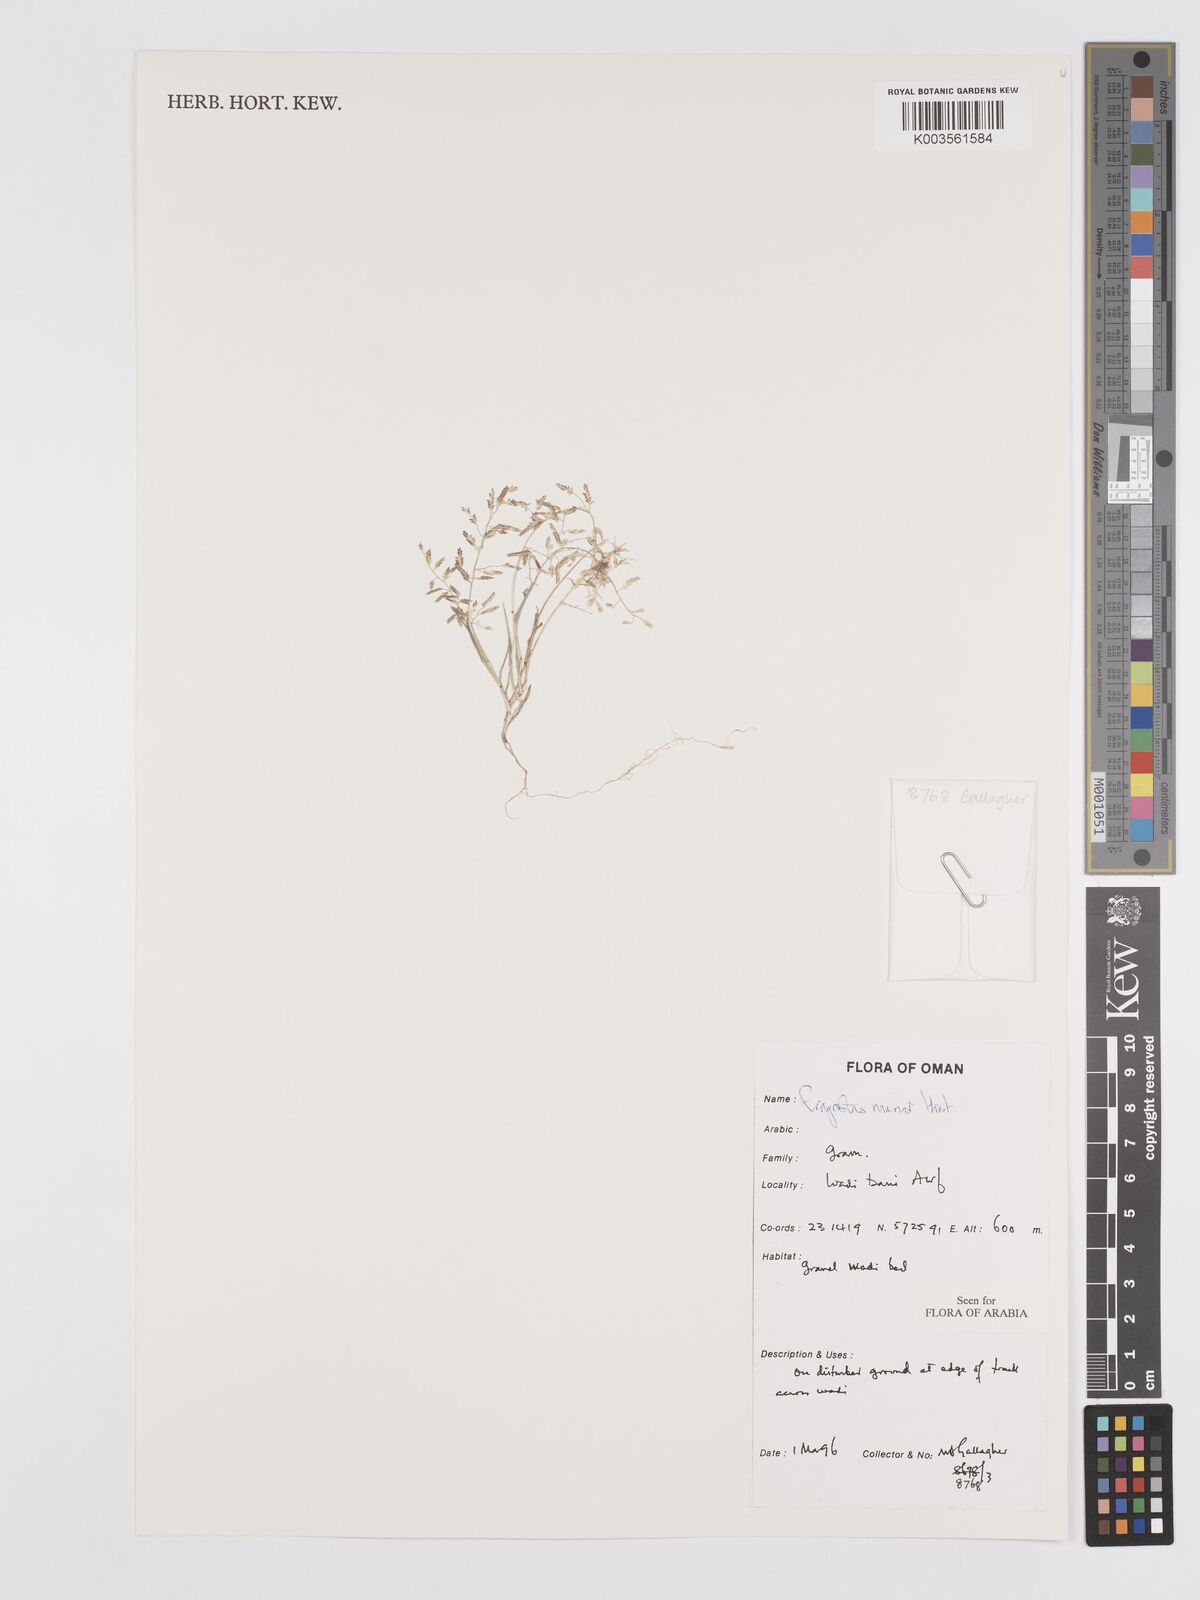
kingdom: Plantae
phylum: Tracheophyta
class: Liliopsida
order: Poales
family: Poaceae
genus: Eragrostis
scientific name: Eragrostis minor
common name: Small love-grass
